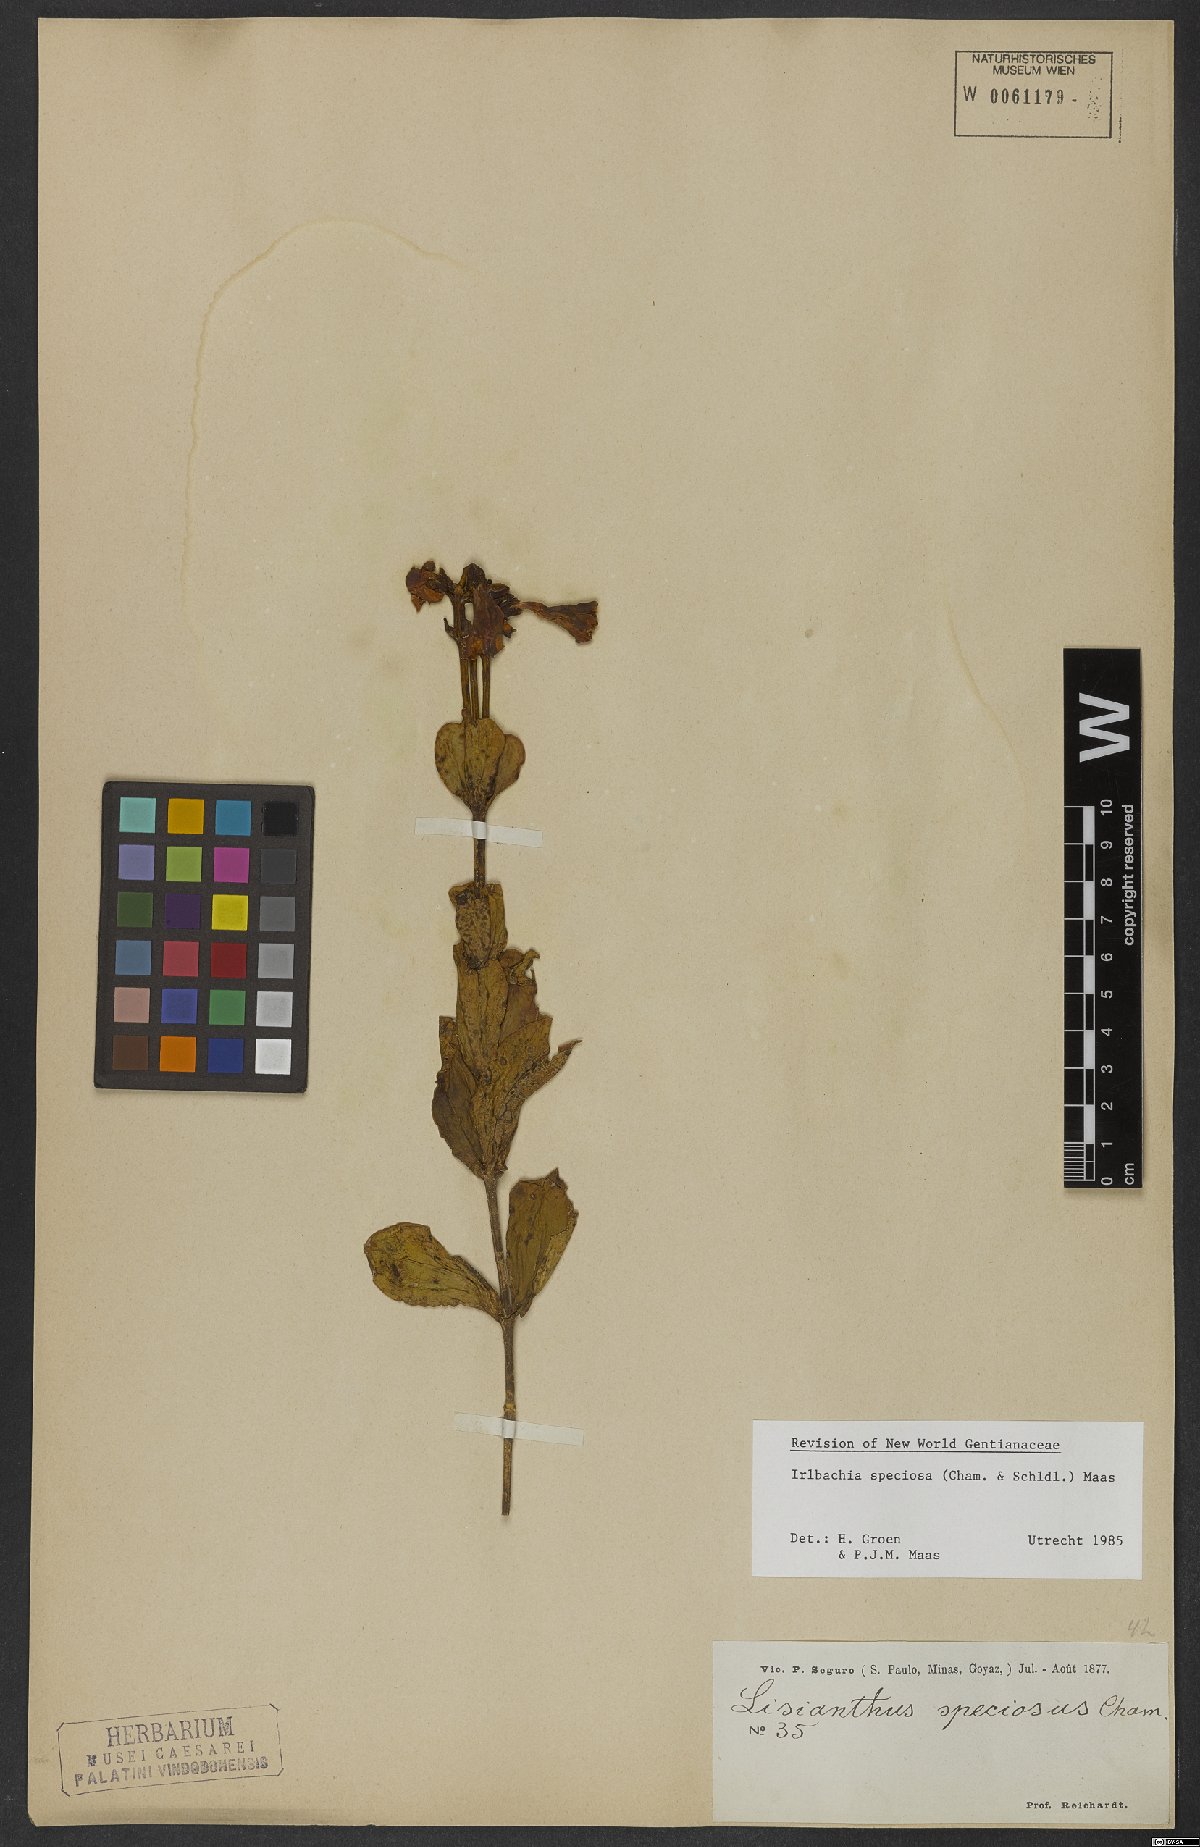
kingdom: Plantae
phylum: Tracheophyta
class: Magnoliopsida
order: Gentianales
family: Gentianaceae
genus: Calolisianthus
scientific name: Calolisianthus speciosus
